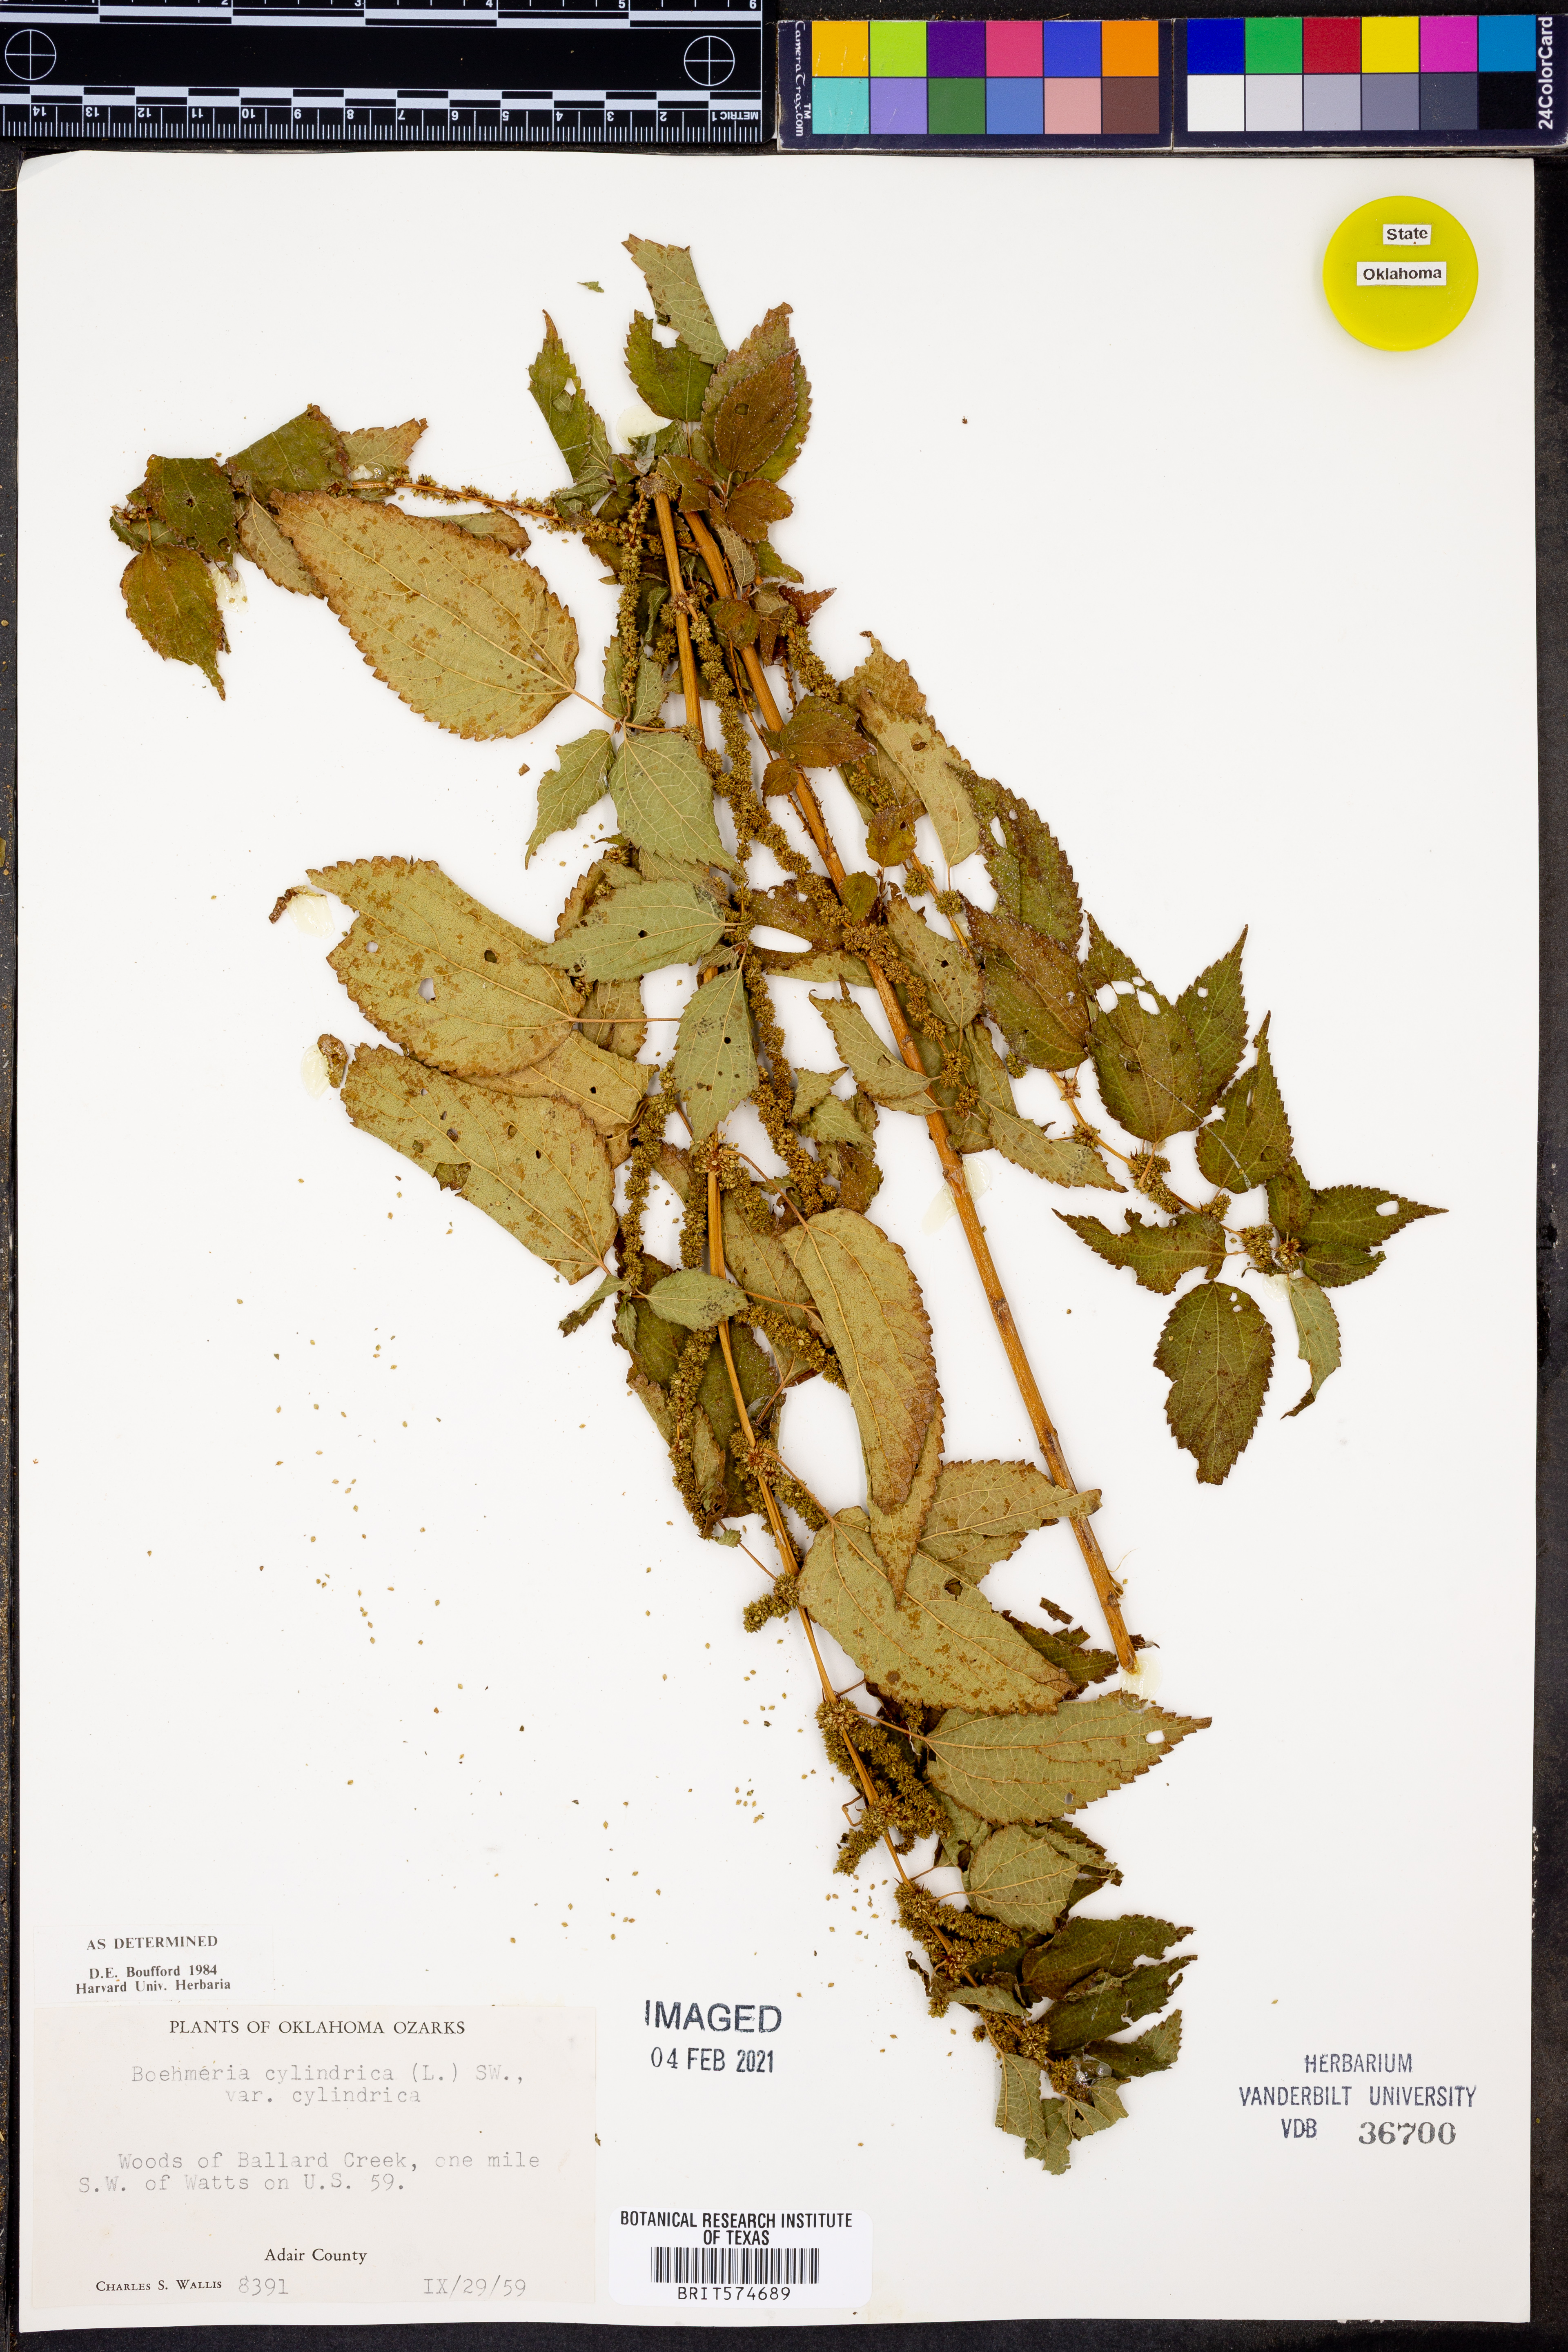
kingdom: Plantae
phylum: Tracheophyta
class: Magnoliopsida
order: Rosales
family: Urticaceae
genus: Boehmeria
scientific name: Boehmeria cylindrica
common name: Bog-hemp
